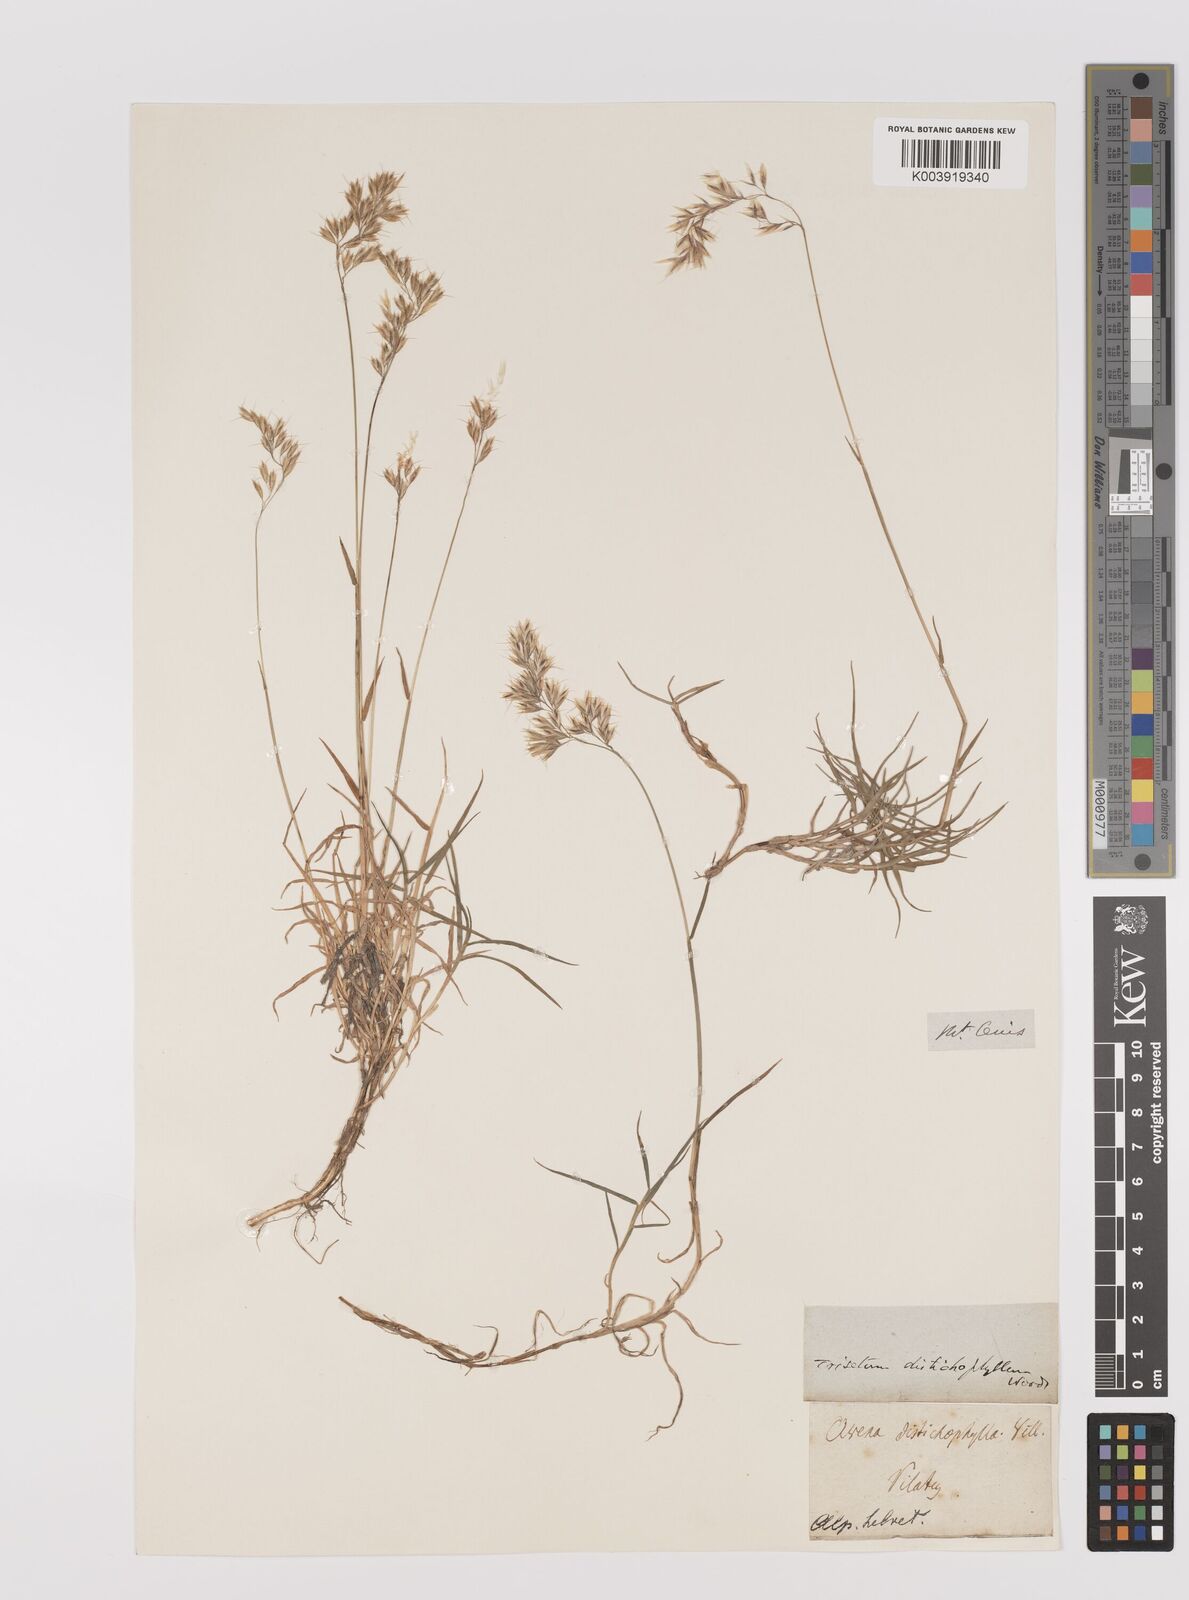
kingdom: Plantae
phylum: Tracheophyta
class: Liliopsida
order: Poales
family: Poaceae
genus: Acrospelion
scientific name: Acrospelion distichophyllum
